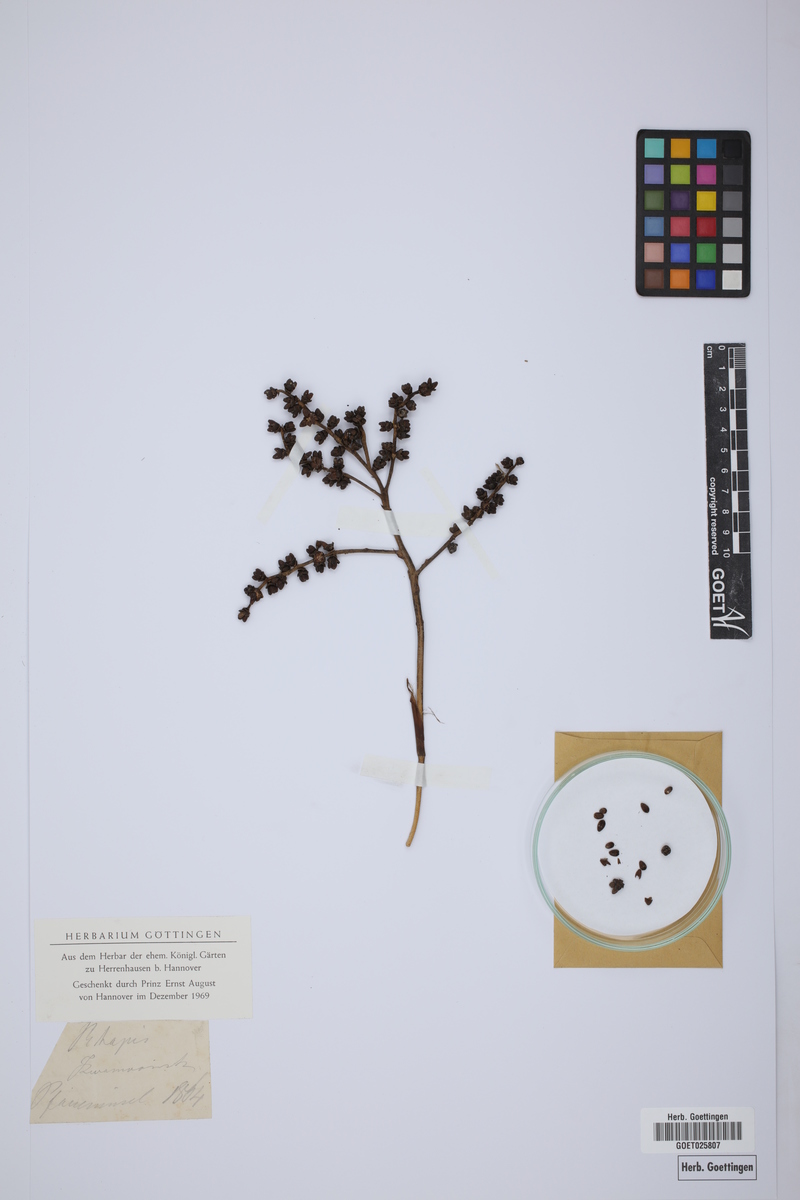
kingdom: Plantae
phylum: Tracheophyta
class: Liliopsida
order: Arecales
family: Arecaceae
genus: Rhapis
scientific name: Rhapis excelsa
